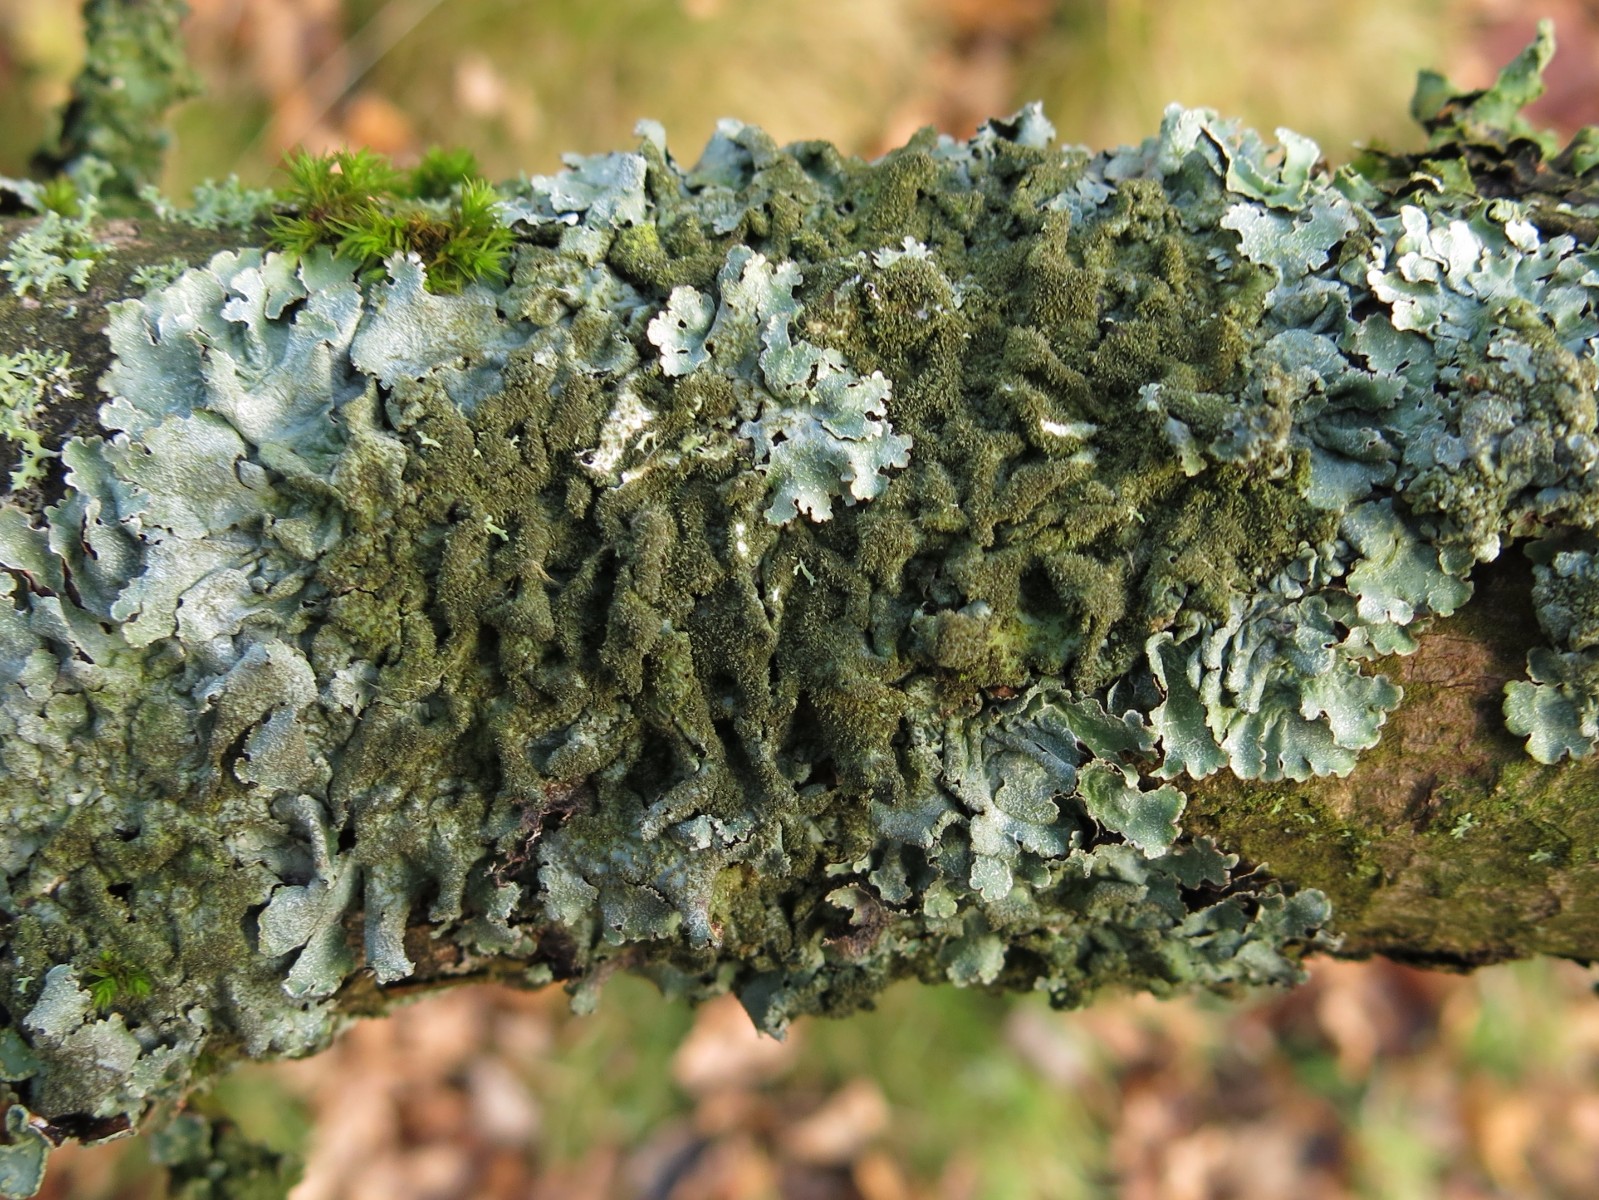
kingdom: Fungi
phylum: Ascomycota
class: Lecanoromycetes
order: Lecanorales
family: Parmeliaceae
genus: Parmelia
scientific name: Parmelia saxatilis
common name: farve-skållav
